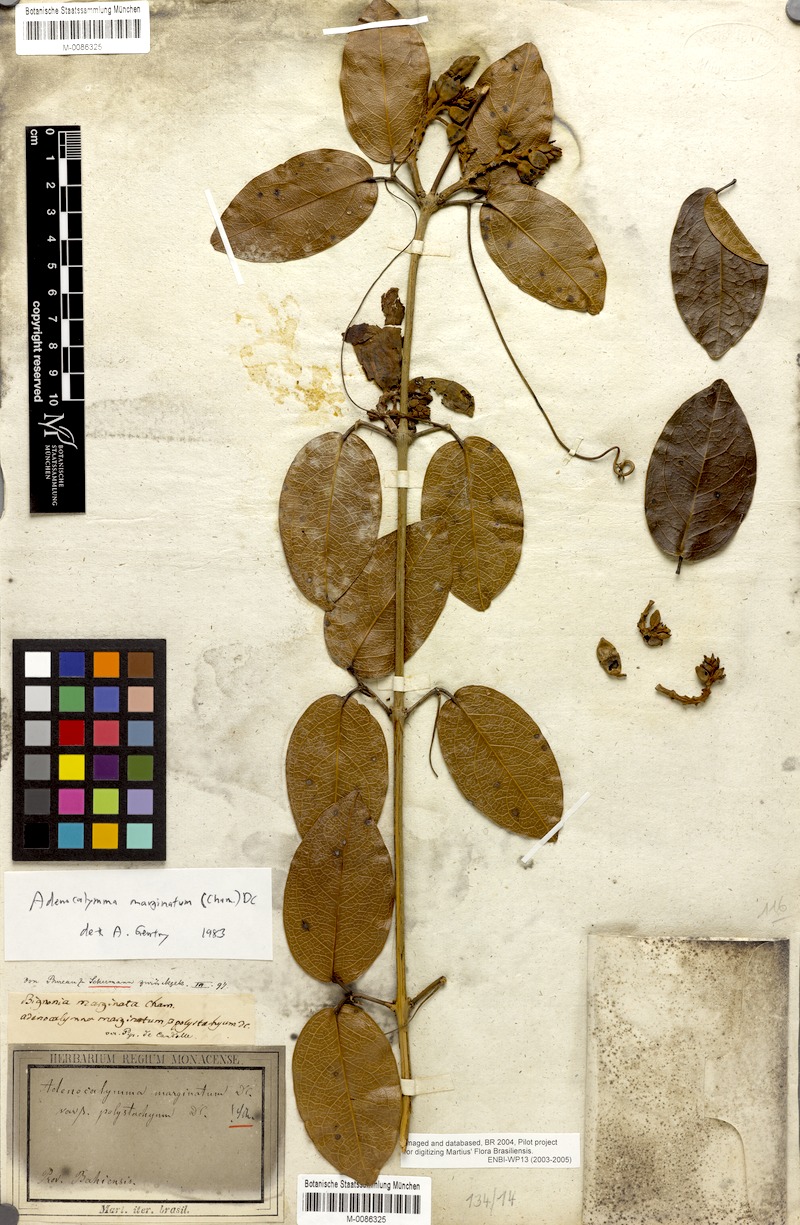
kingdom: Plantae
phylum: Tracheophyta
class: Magnoliopsida
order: Lamiales
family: Bignoniaceae
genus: Adenocalymma
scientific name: Adenocalymma marginatum
